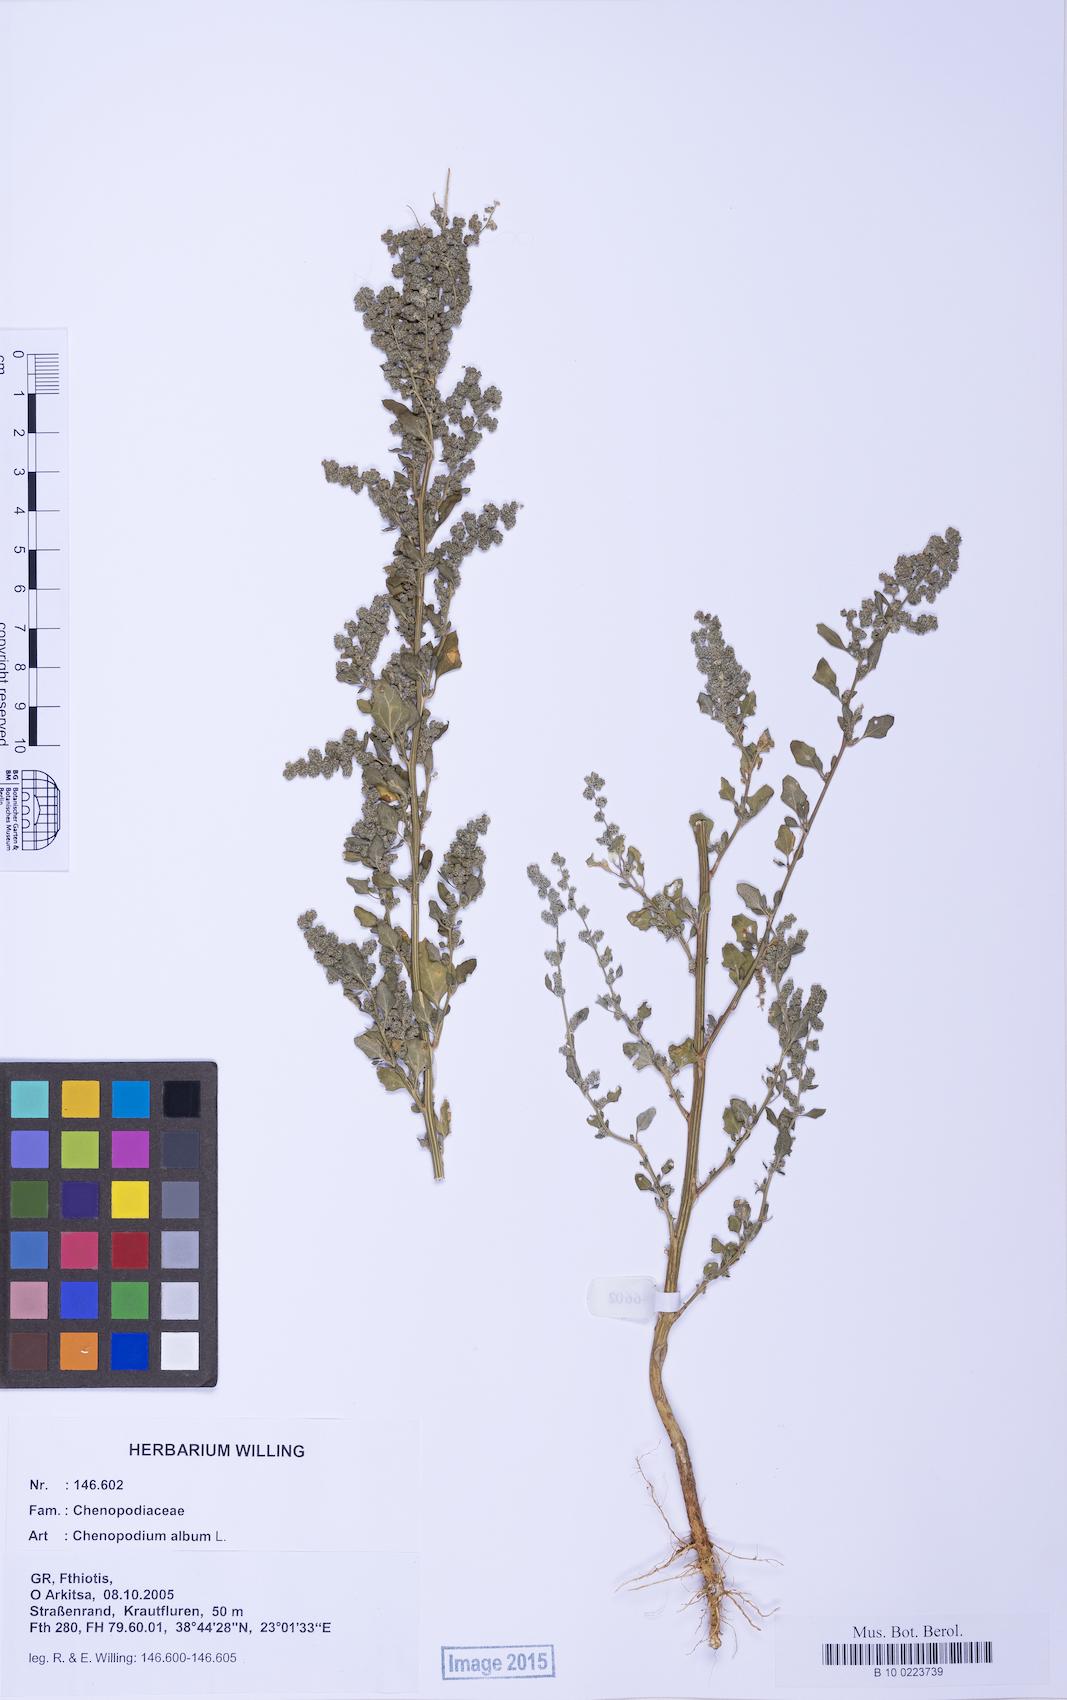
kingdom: Plantae
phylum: Tracheophyta
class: Magnoliopsida
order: Caryophyllales
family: Amaranthaceae
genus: Chenopodium
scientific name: Chenopodium album
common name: Fat-hen
